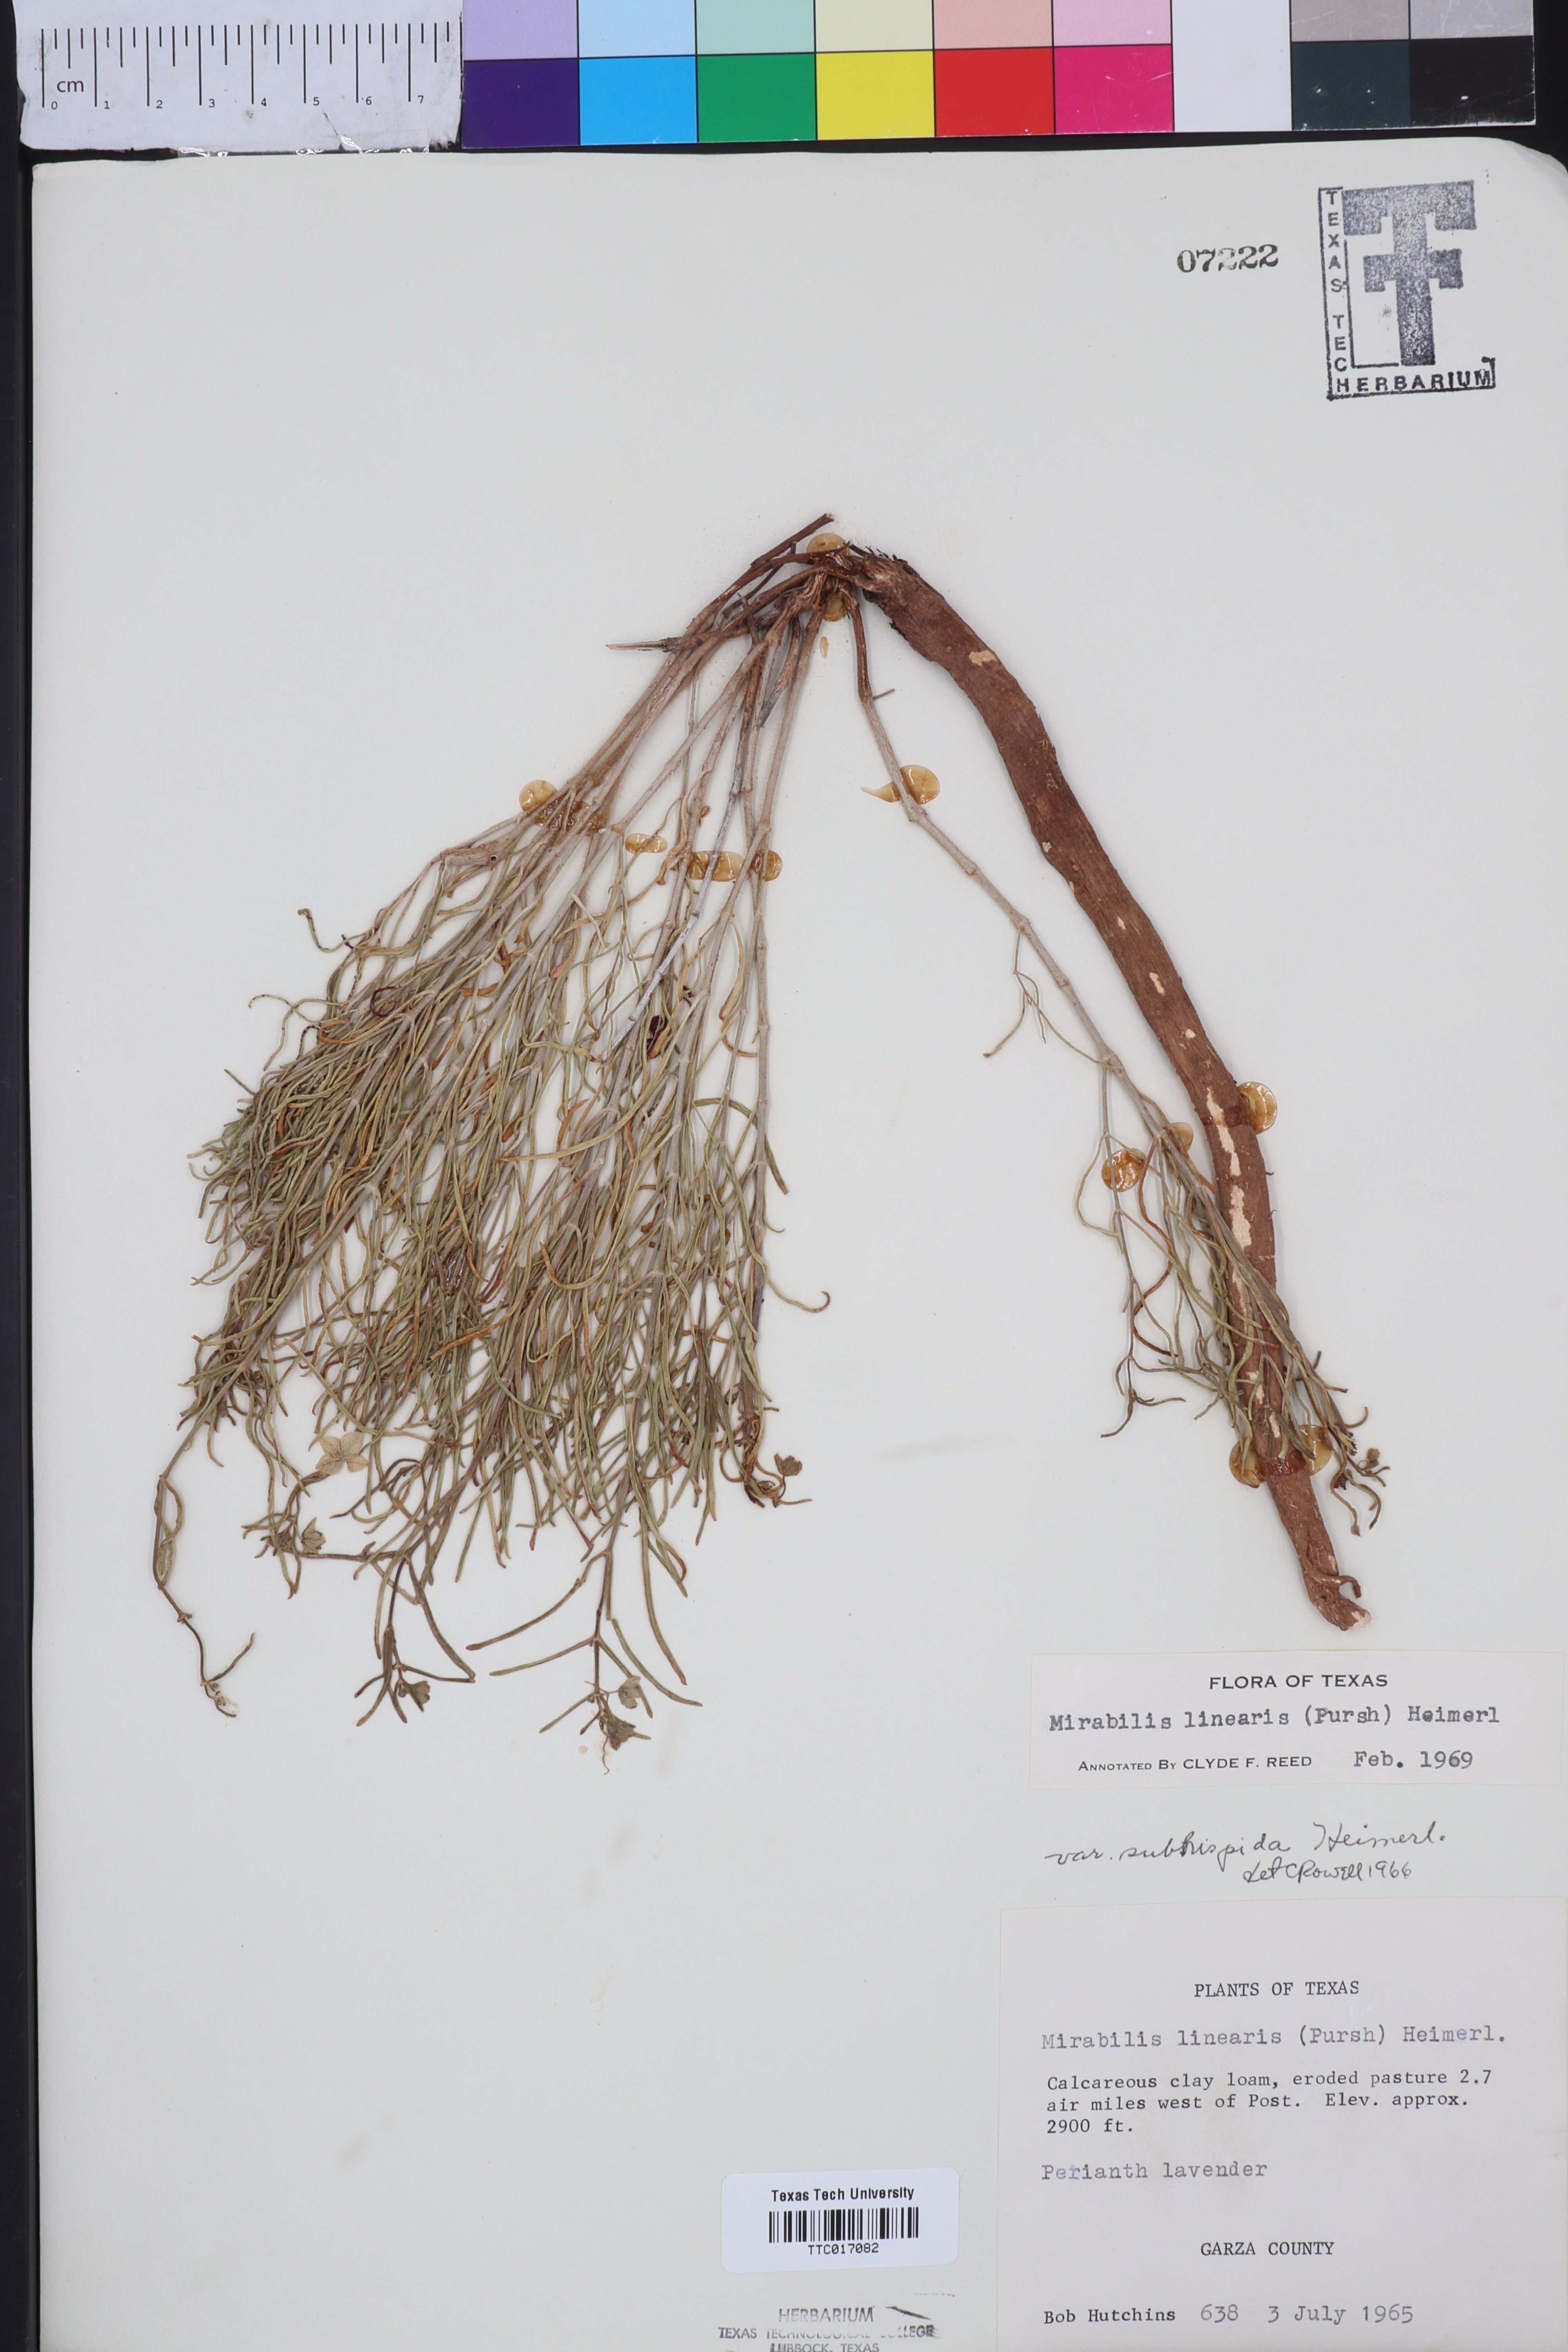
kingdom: Plantae
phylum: Tracheophyta
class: Magnoliopsida
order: Caryophyllales
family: Nyctaginaceae
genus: Mirabilis
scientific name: Mirabilis linearis
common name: Linear-leaved four-o'clock
